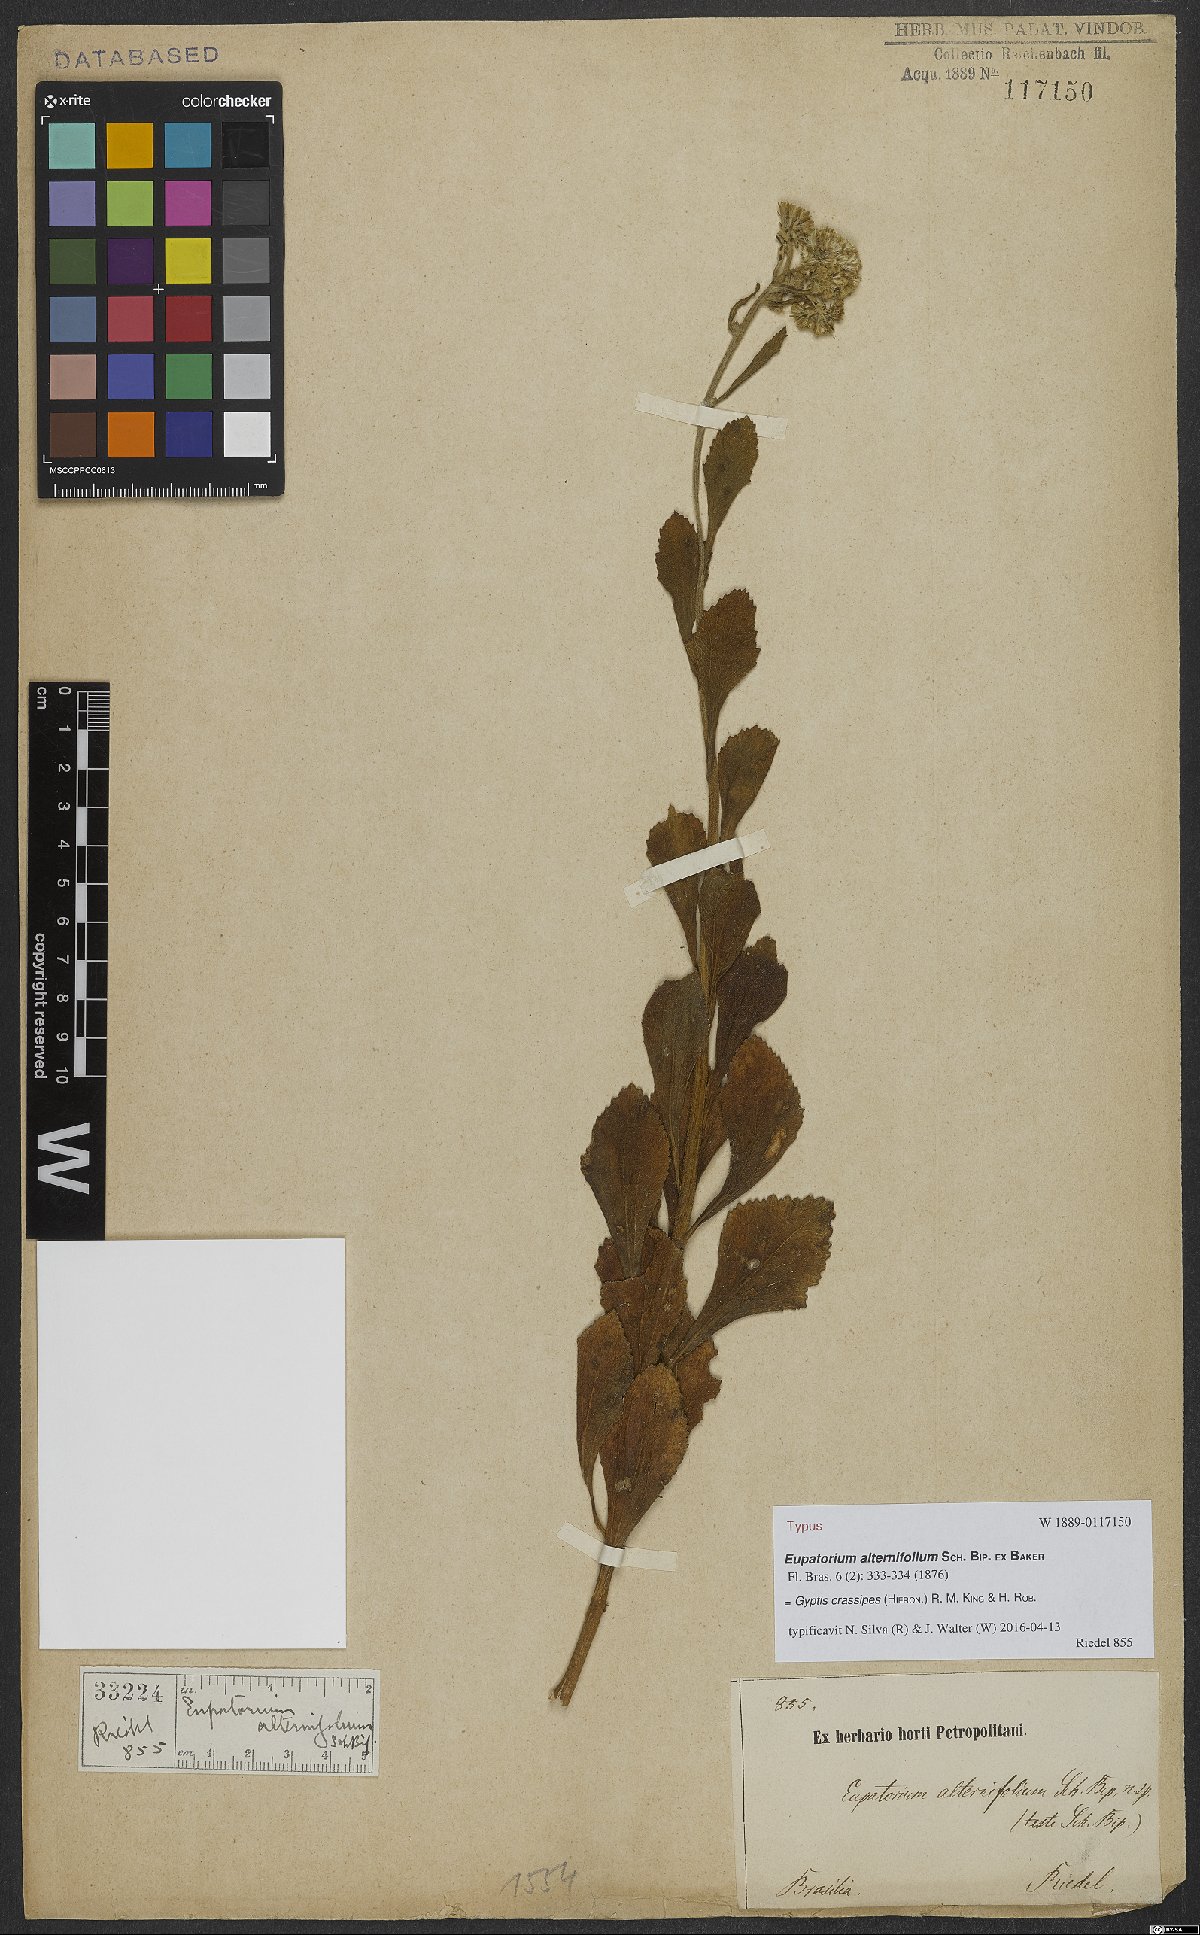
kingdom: Plantae
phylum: Tracheophyta
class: Magnoliopsida
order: Asterales
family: Asteraceae
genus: Gyptis
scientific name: Gyptis crassipes
